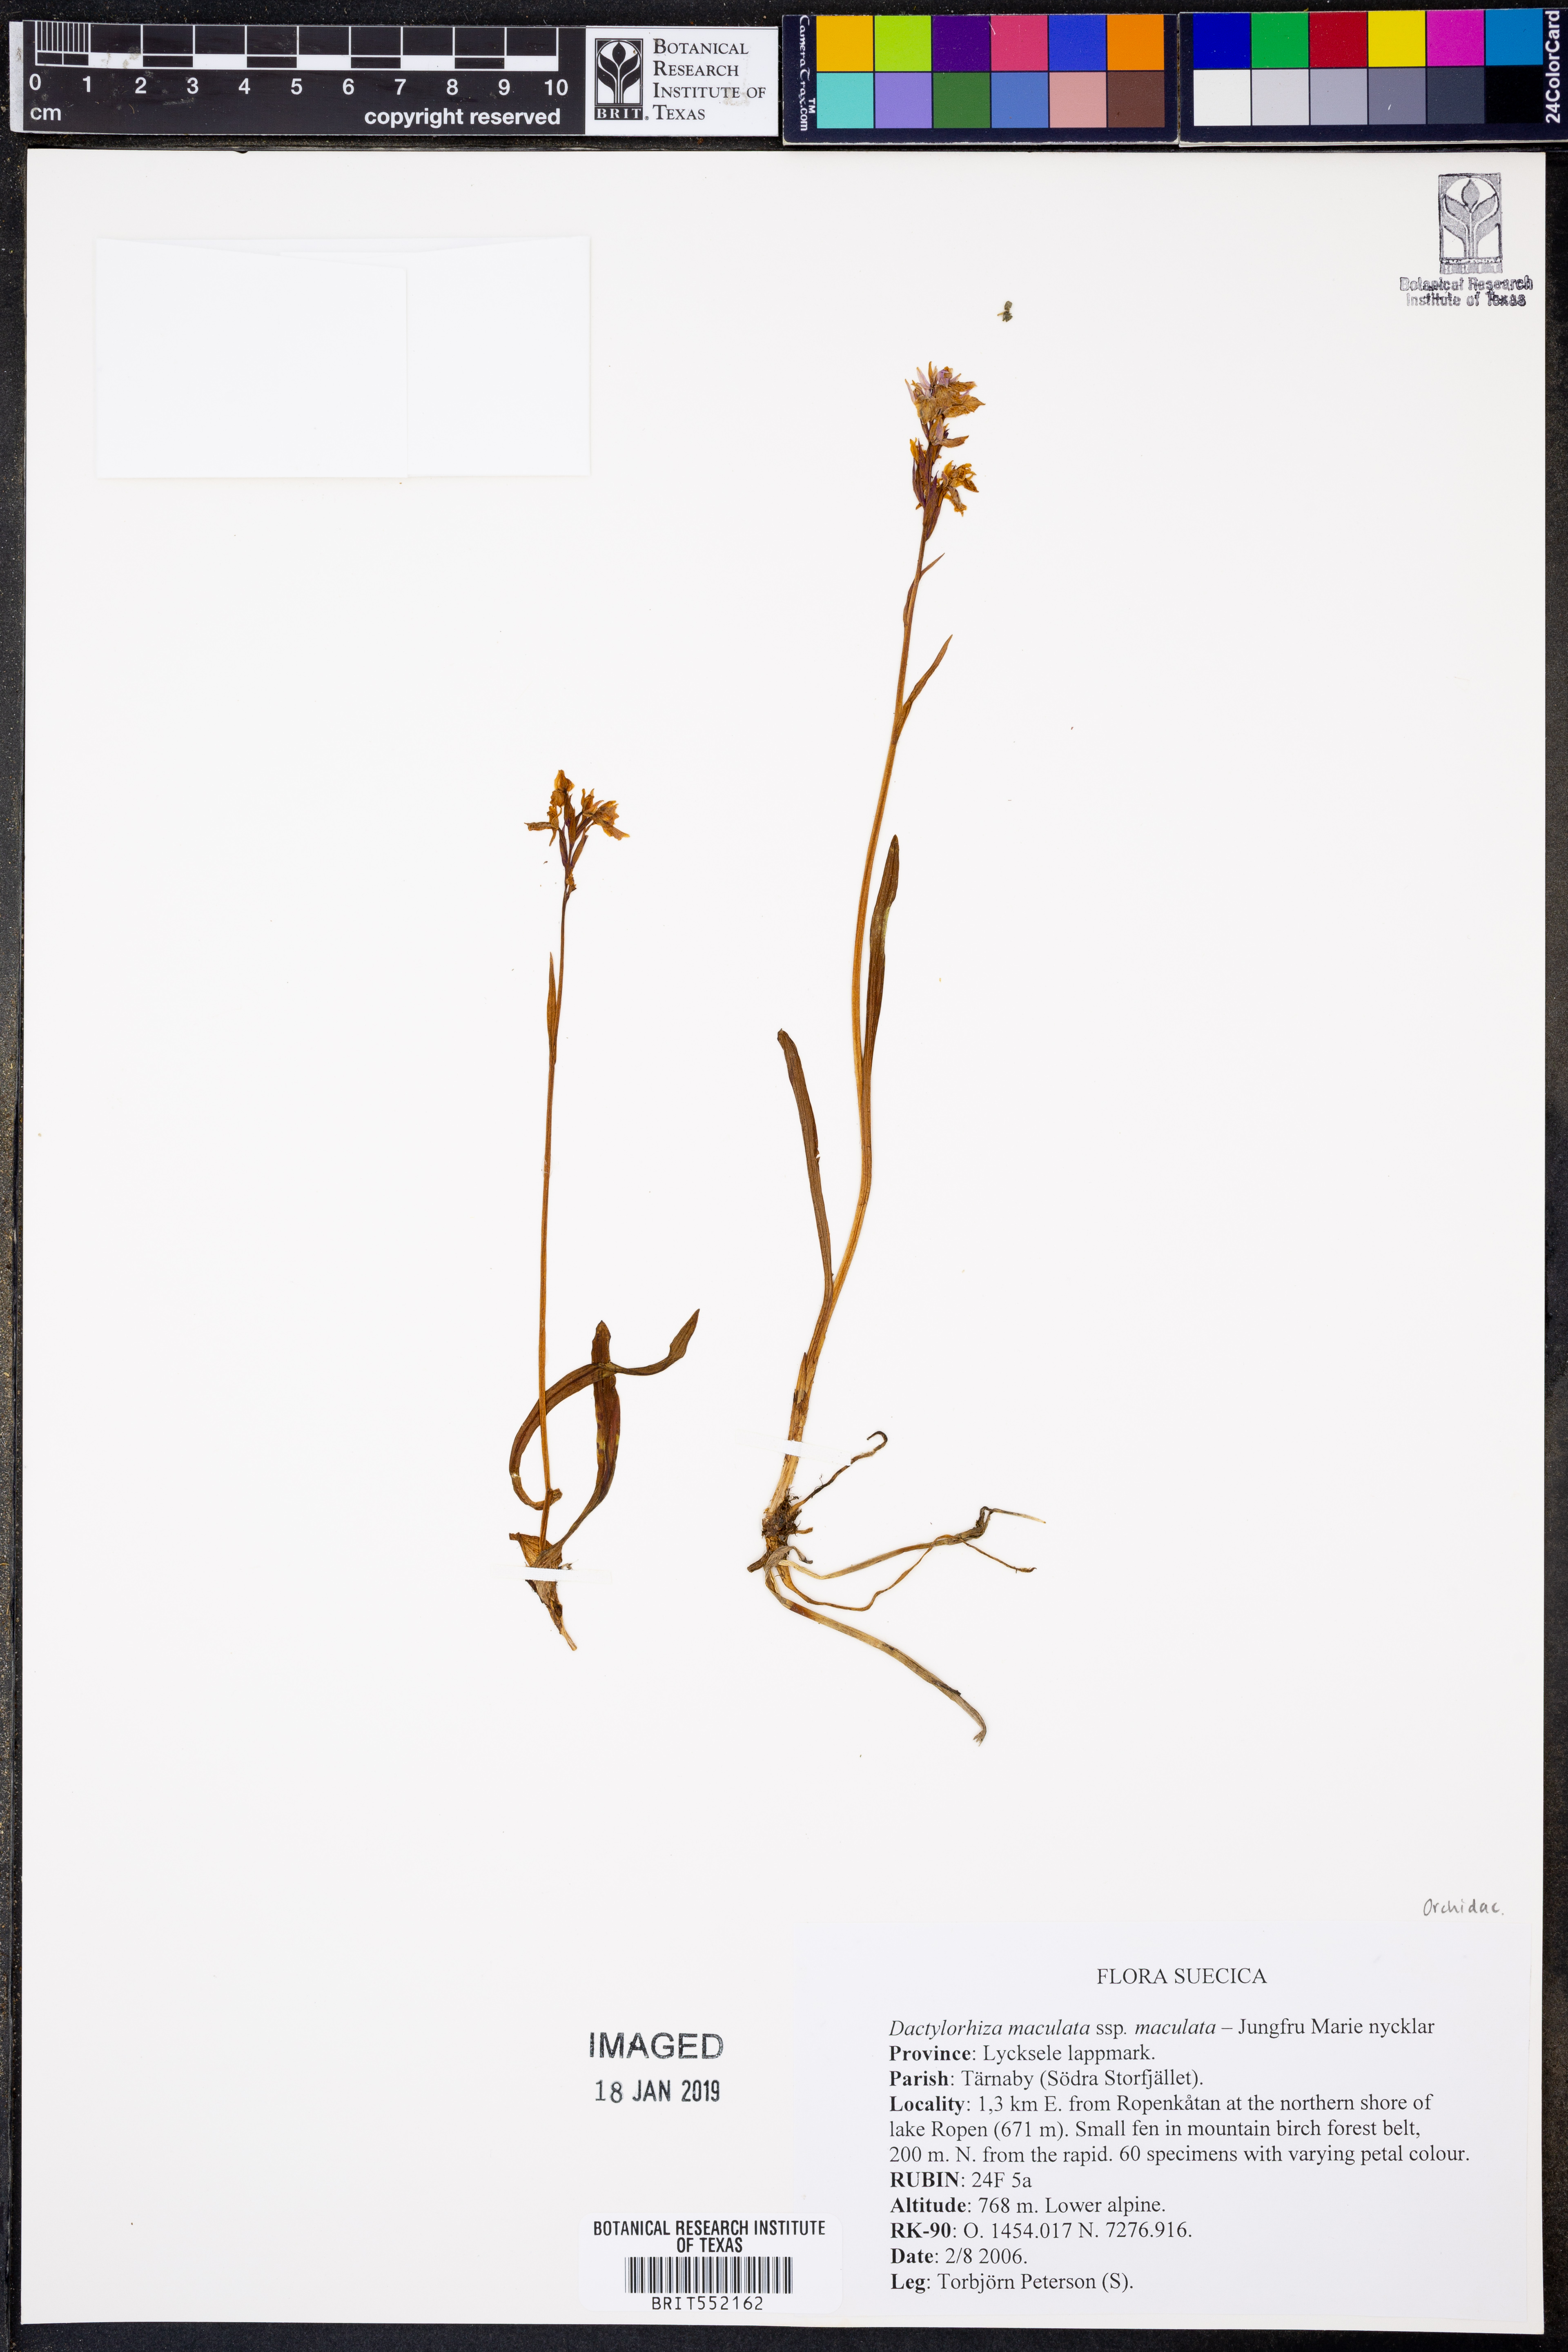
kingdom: Plantae
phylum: Tracheophyta
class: Liliopsida
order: Asparagales
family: Orchidaceae
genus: Dactylorhiza
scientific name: Dactylorhiza maculata
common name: Heath spotted-orchid
